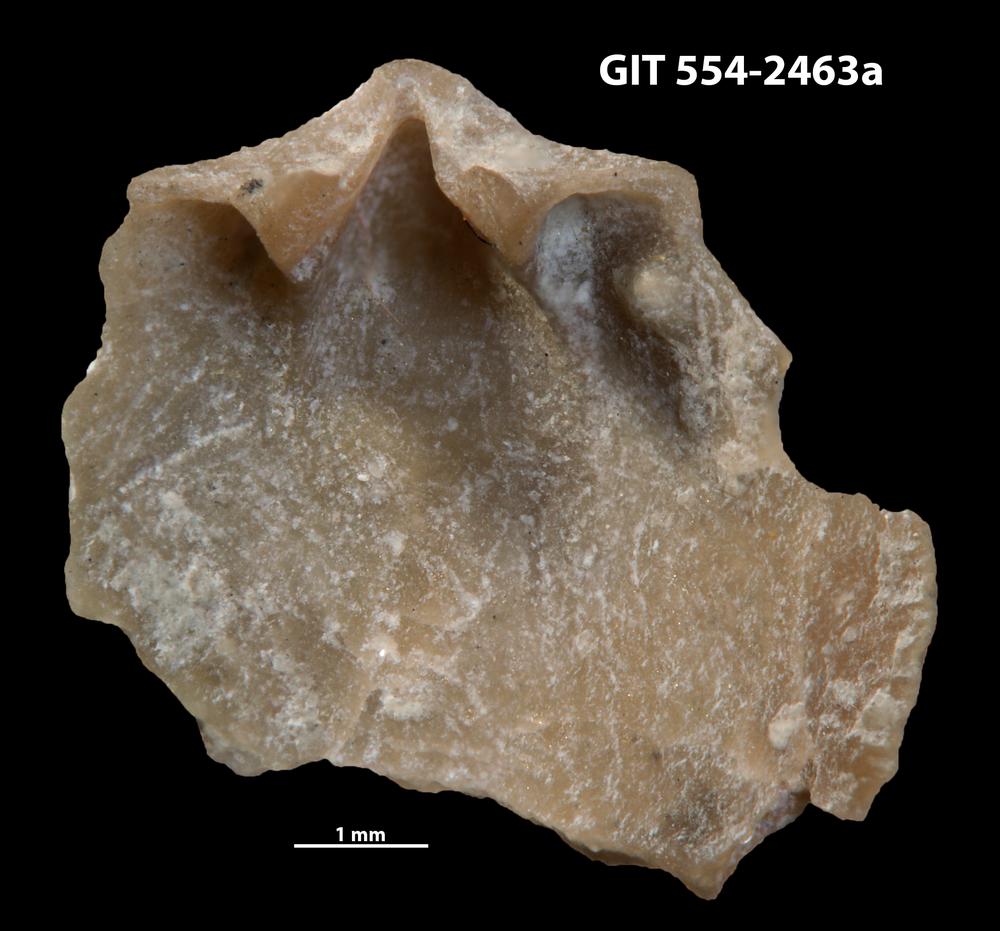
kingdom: Animalia
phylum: Brachiopoda
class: Rhynchonellata
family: Dalmanellidae
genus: Dalmanella
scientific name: Dalmanella rosensteinae
